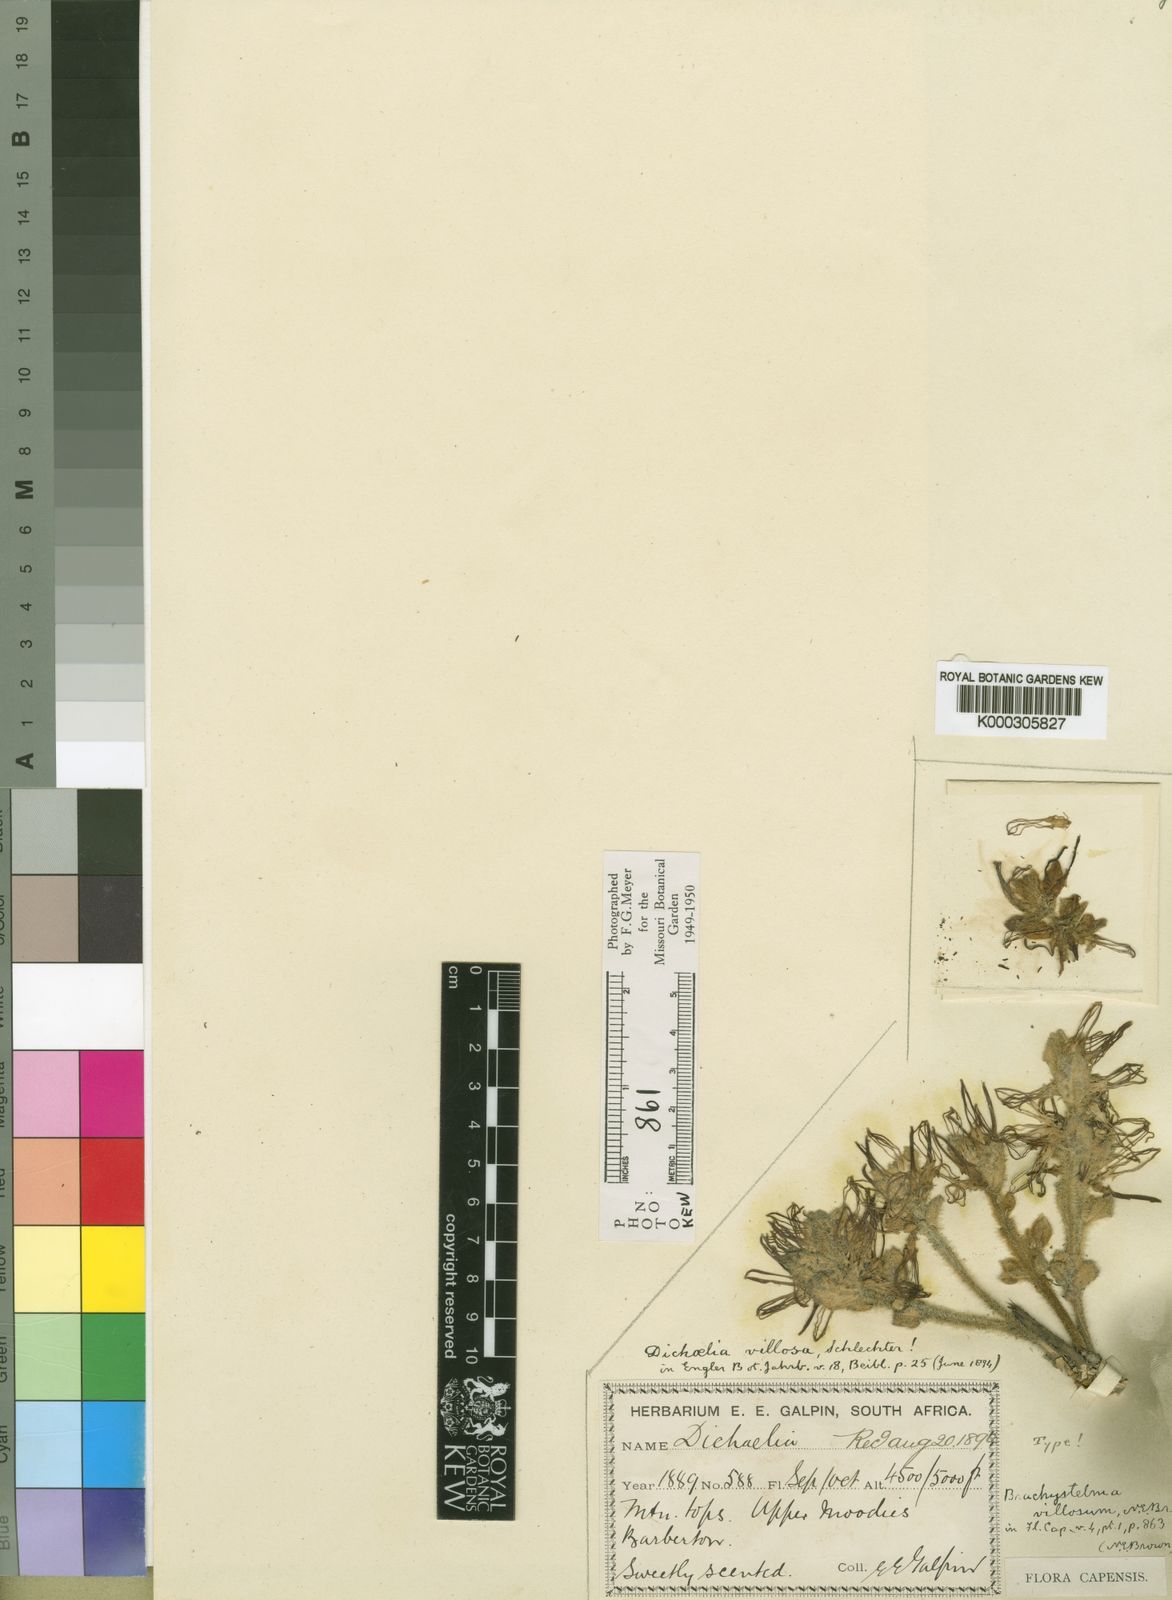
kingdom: Plantae
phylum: Tracheophyta
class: Magnoliopsida
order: Gentianales
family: Apocynaceae
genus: Ceropegia
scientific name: Ceropegia villosa
